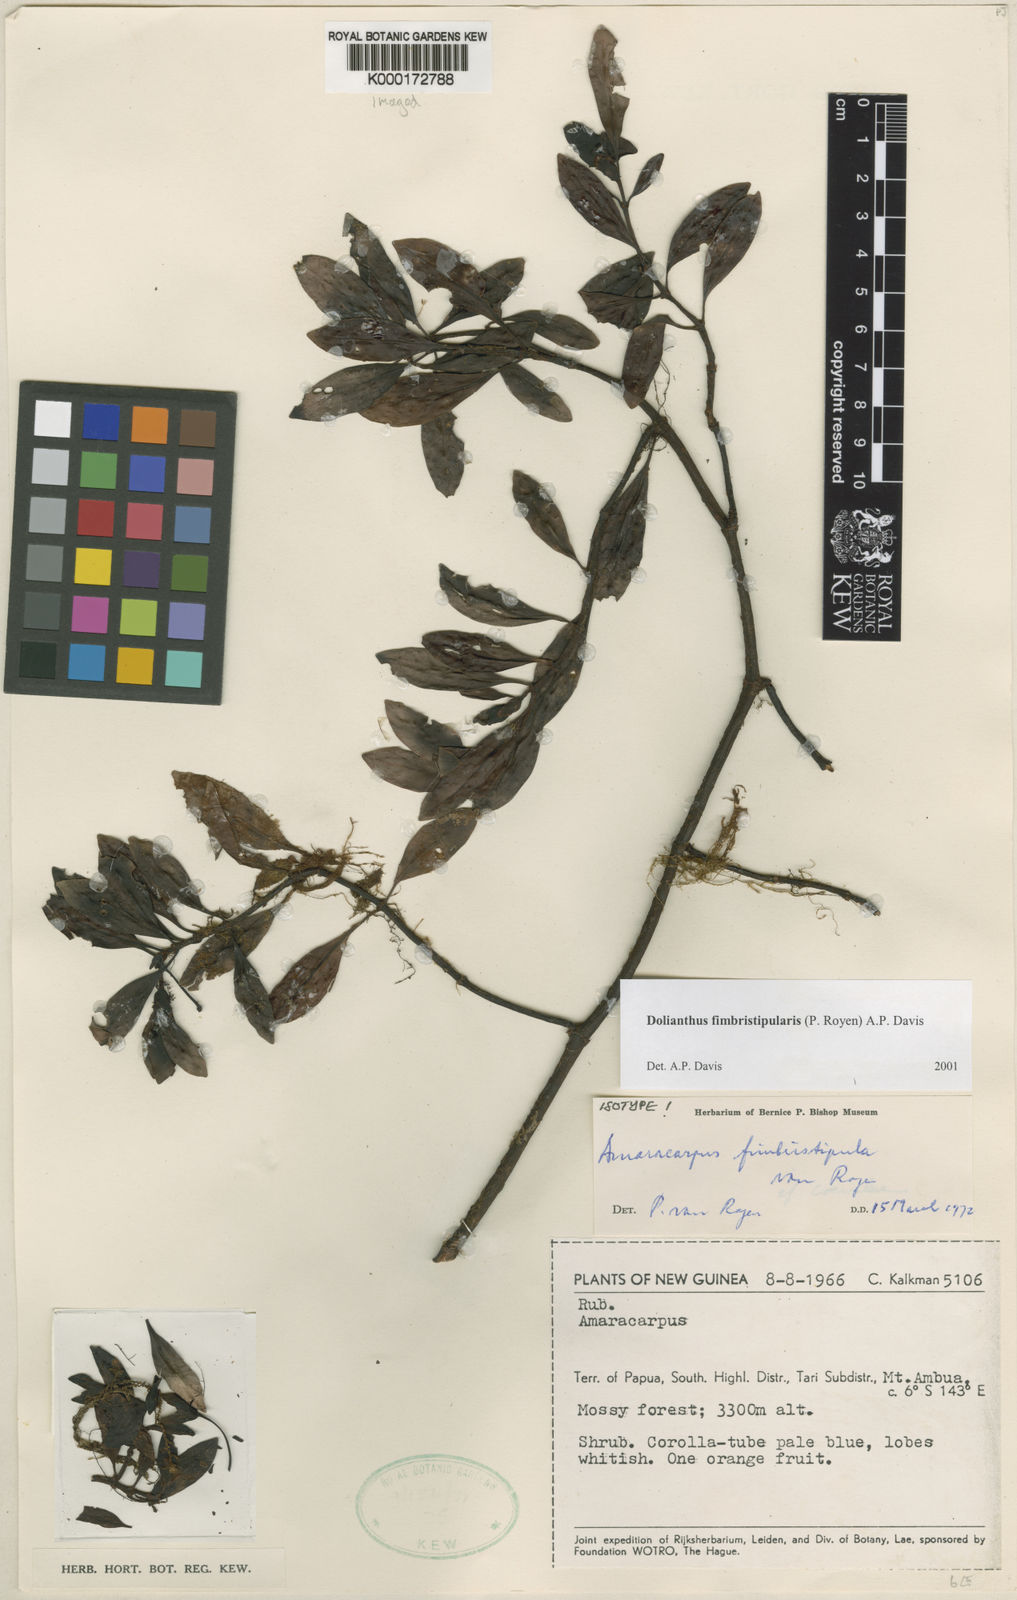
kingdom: Plantae
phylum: Tracheophyta
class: Magnoliopsida
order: Gentianales
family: Rubiaceae
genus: Dolianthus
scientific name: Dolianthus fimbristipularis
